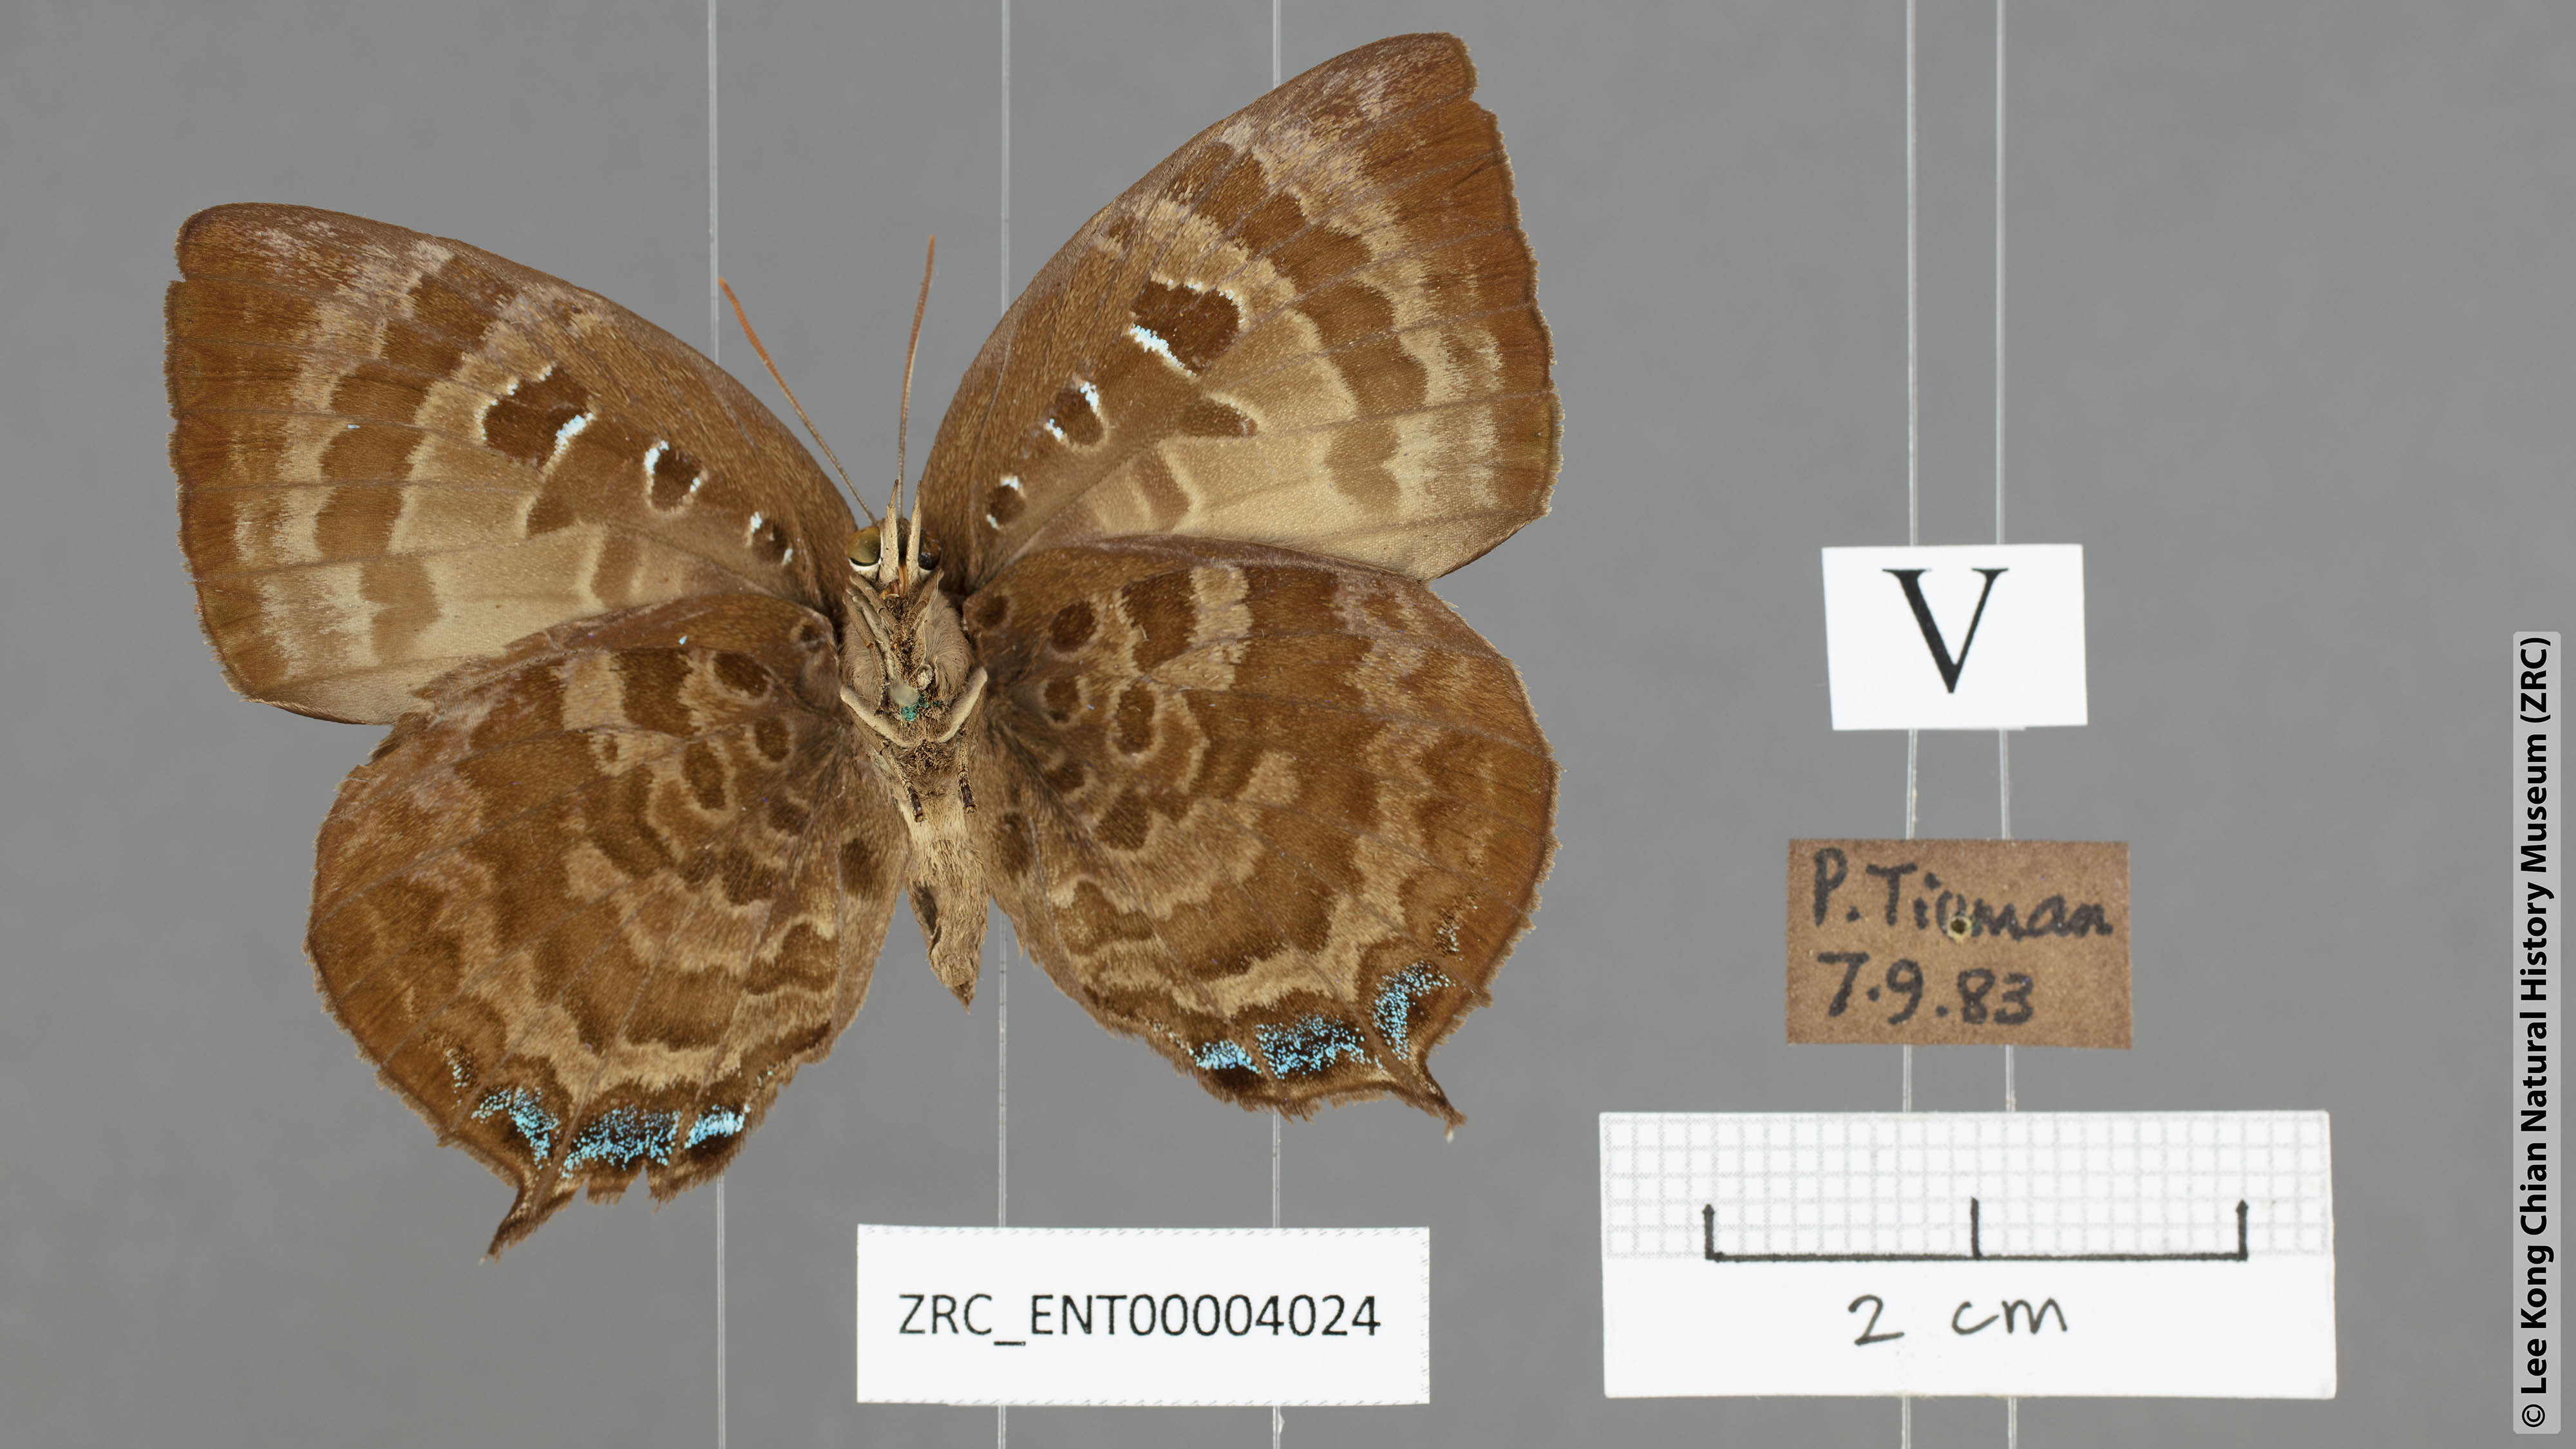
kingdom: Animalia
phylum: Arthropoda
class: Insecta
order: Lepidoptera
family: Lycaenidae
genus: Arhopala
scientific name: Arhopala centaurus
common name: Dull oak-blue
